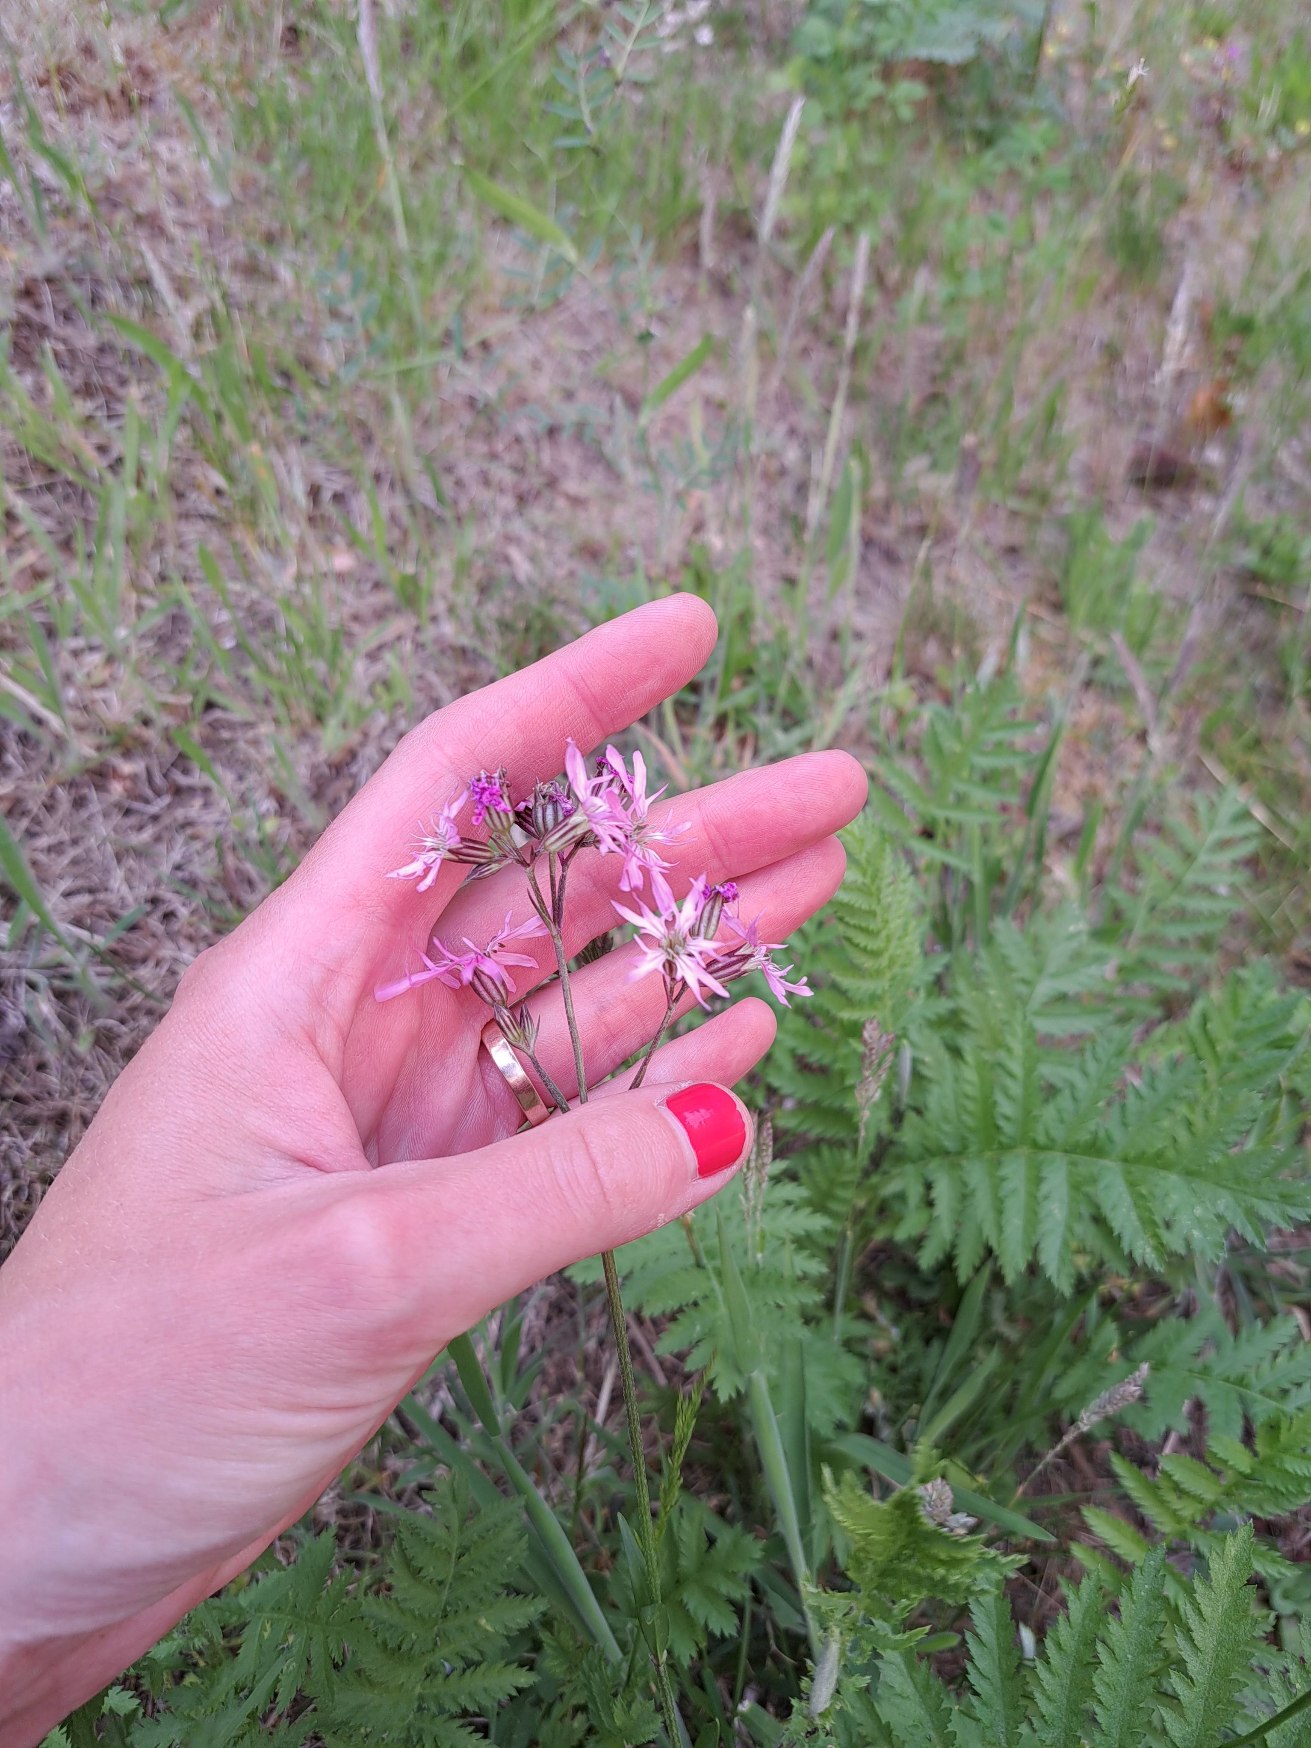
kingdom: Plantae
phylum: Tracheophyta
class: Magnoliopsida
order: Caryophyllales
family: Caryophyllaceae
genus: Silene
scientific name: Silene flos-cuculi
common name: Trævlekrone
